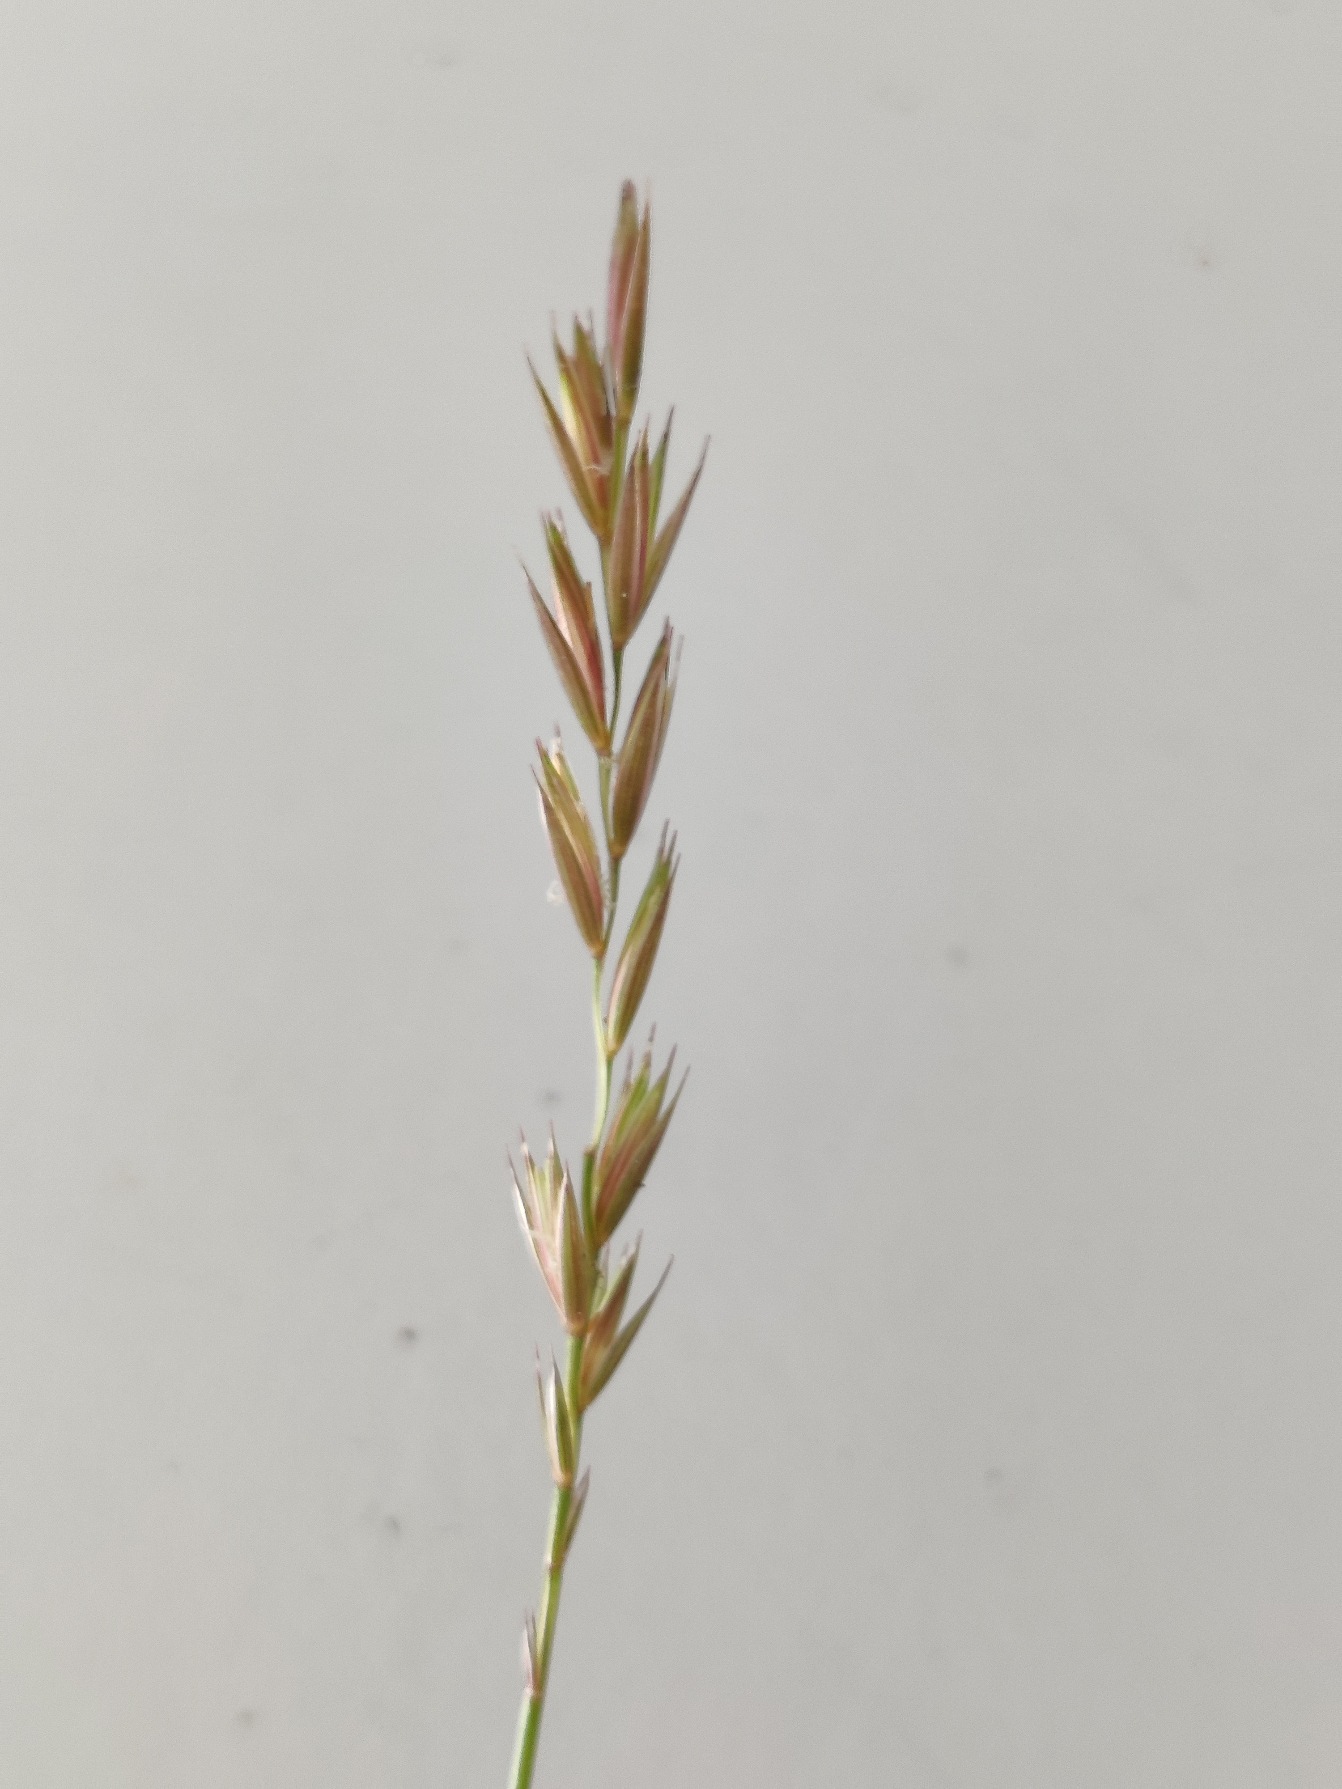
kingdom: Plantae
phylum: Tracheophyta
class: Liliopsida
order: Poales
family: Poaceae
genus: Elymus
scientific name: Elymus repens
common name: Almindelig kvik
